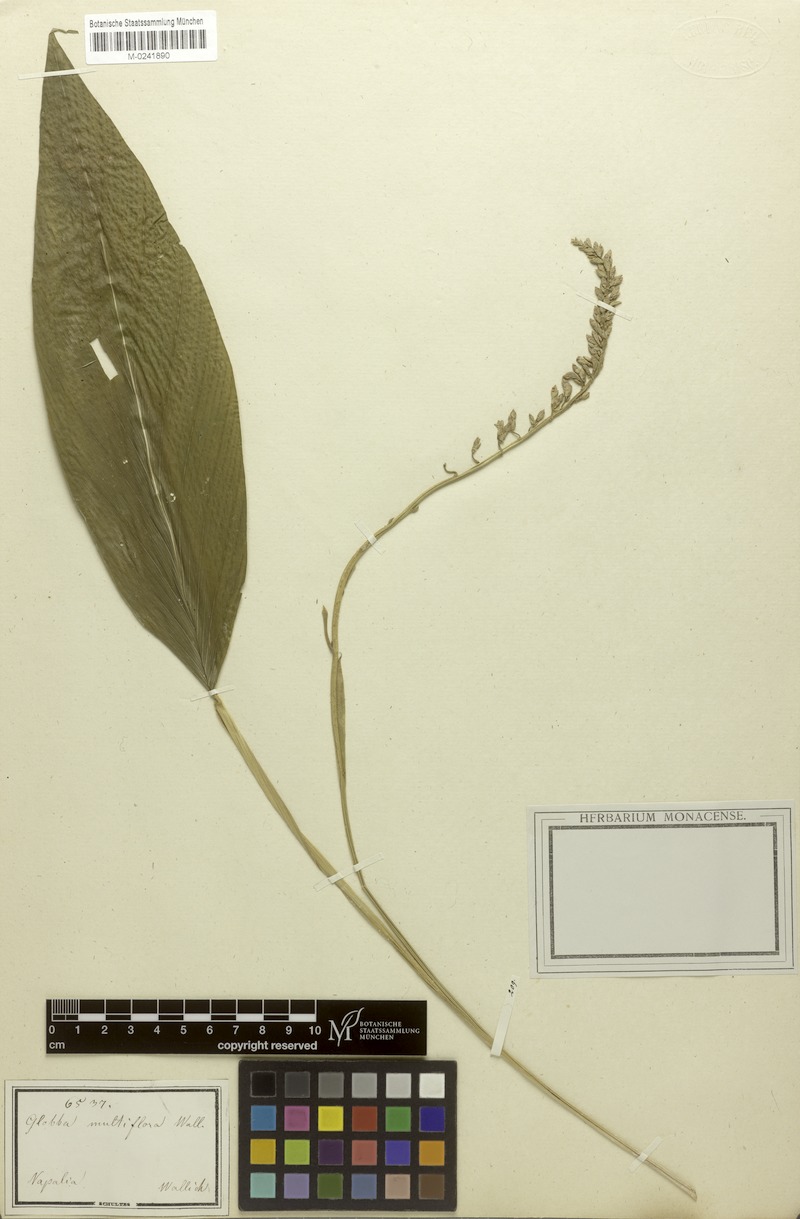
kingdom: Plantae
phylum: Tracheophyta
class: Liliopsida
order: Zingiberales
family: Zingiberaceae
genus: Globba
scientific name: Globba multiflora
